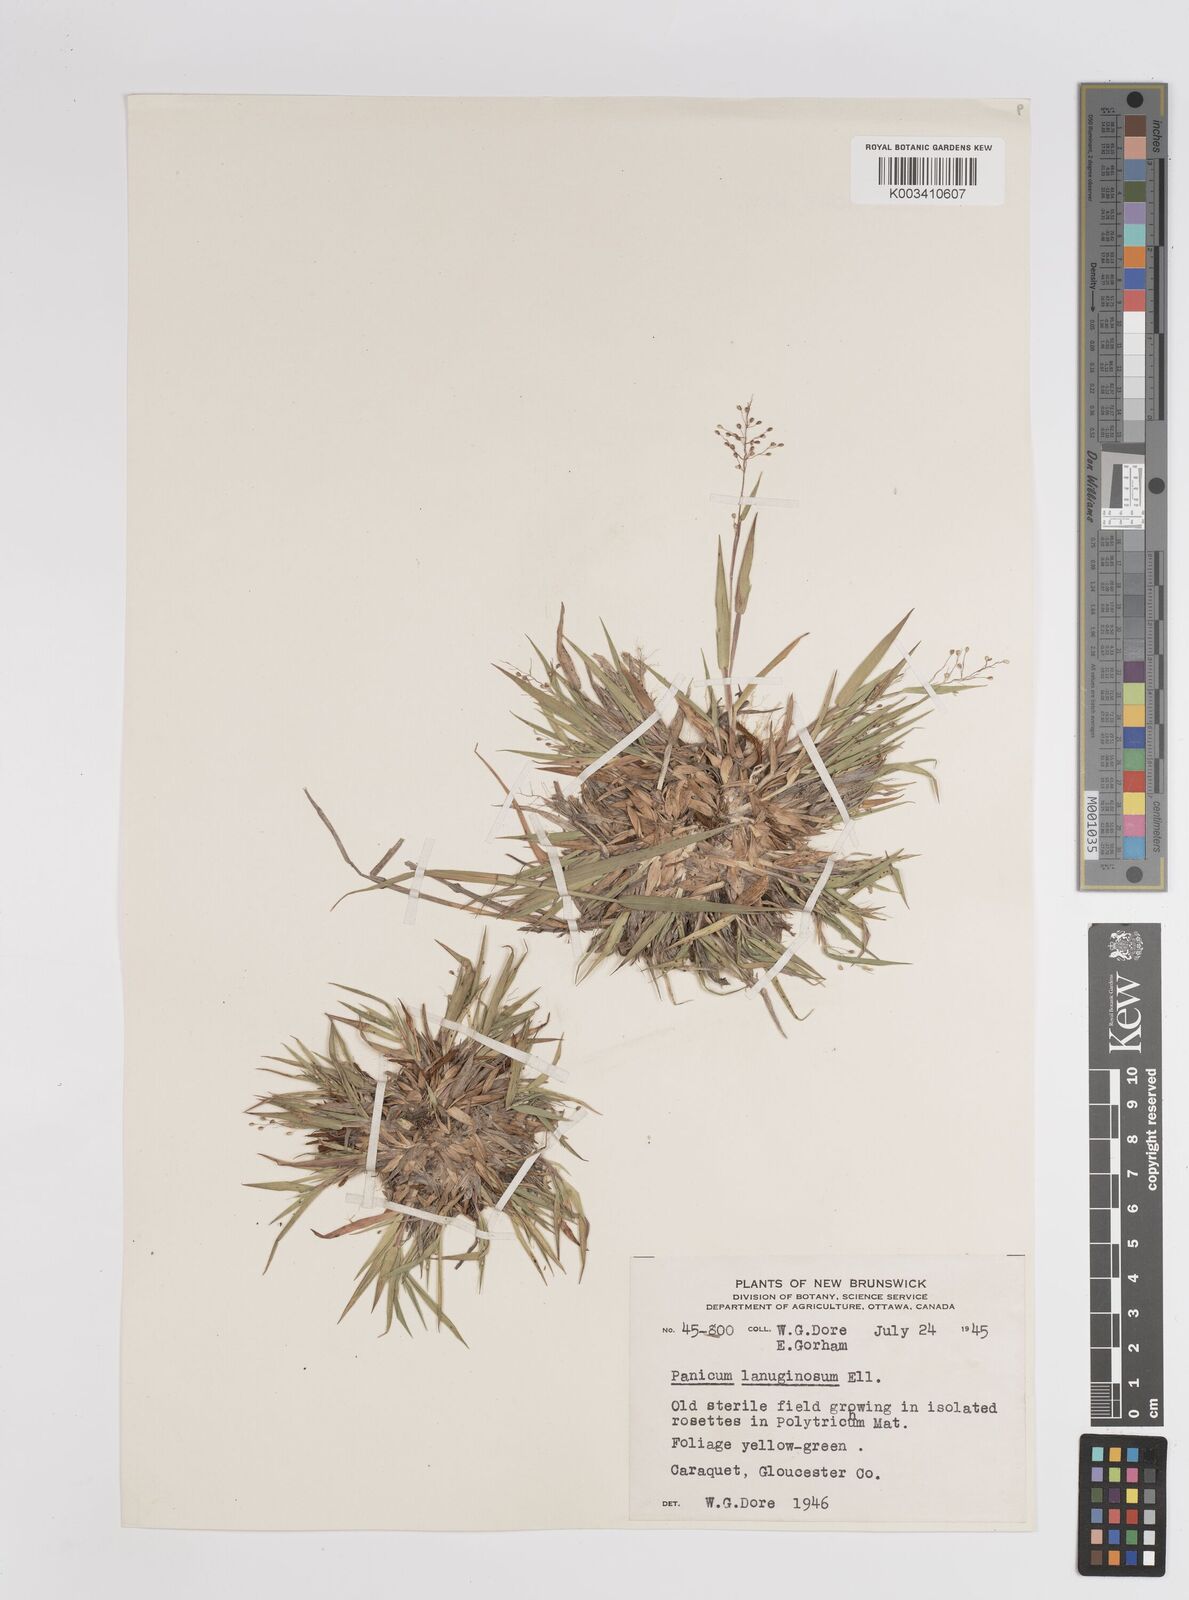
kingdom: Plantae
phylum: Tracheophyta
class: Liliopsida
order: Poales
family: Poaceae
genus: Dichanthelium
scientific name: Dichanthelium lanuginosum
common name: Woolly panicgrass
